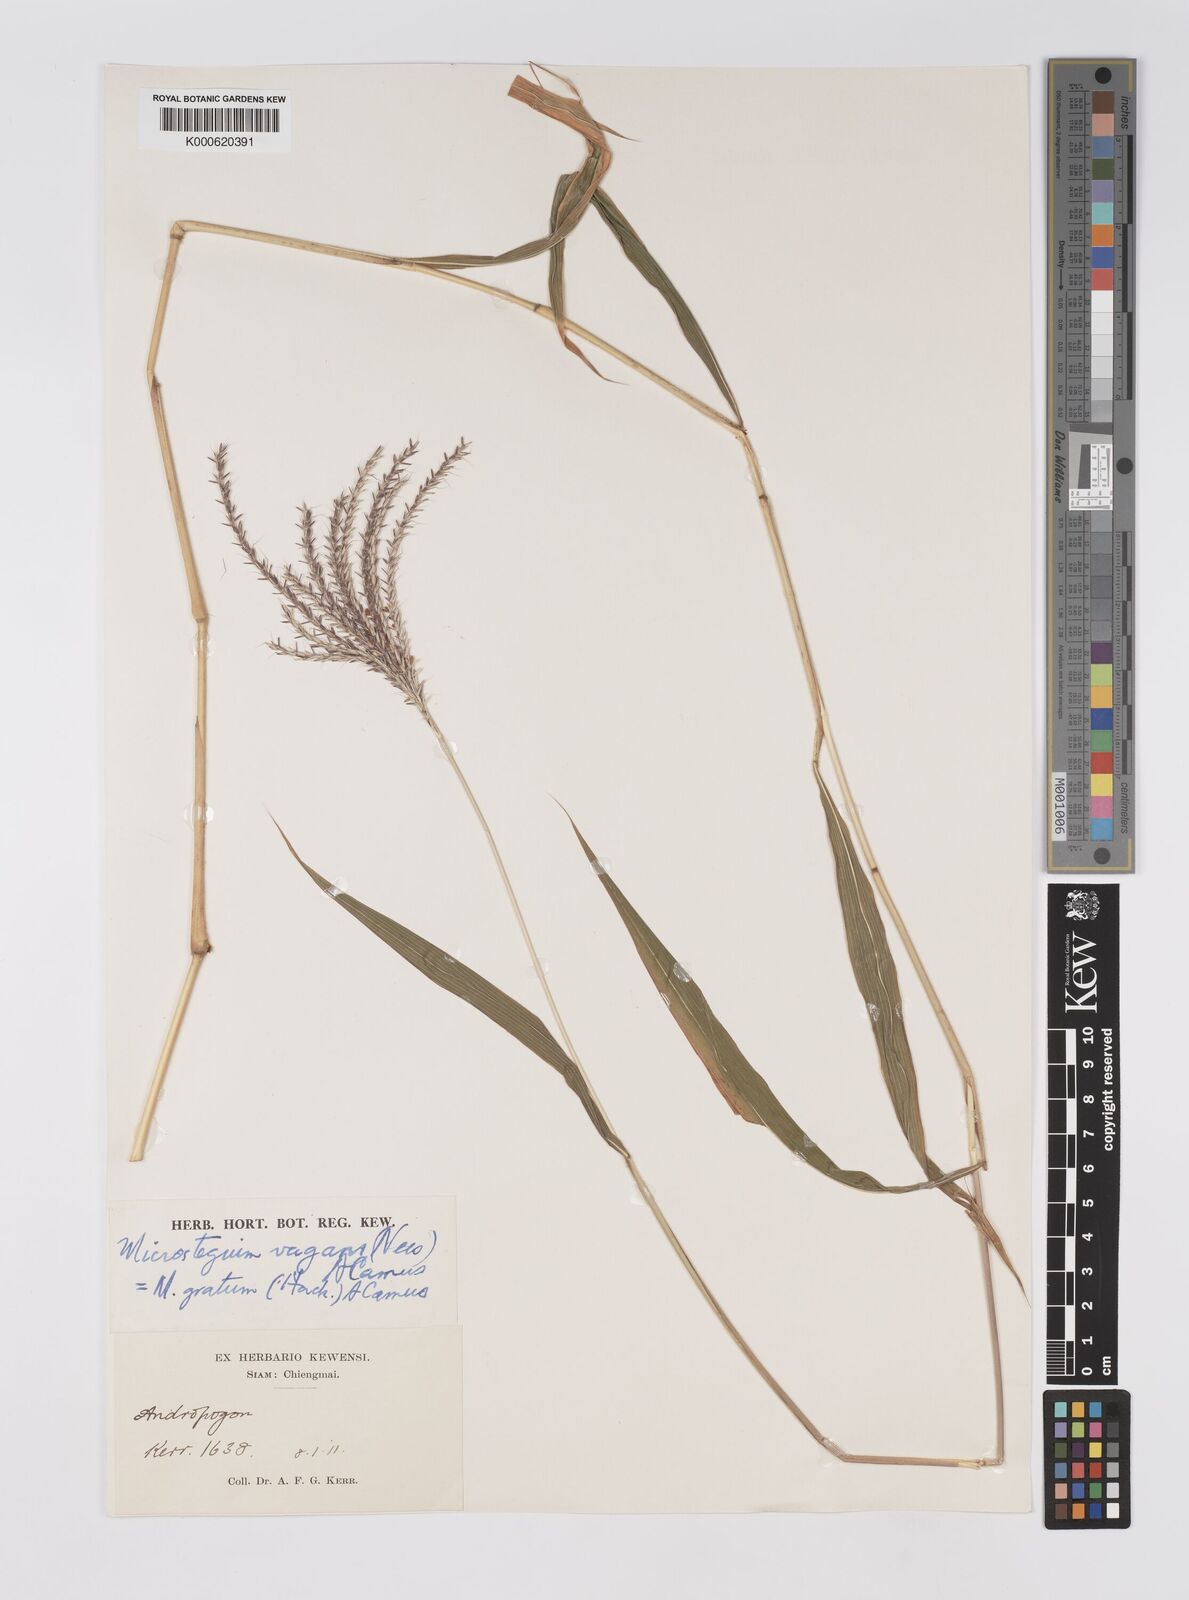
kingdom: Plantae
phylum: Tracheophyta
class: Liliopsida
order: Poales
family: Poaceae
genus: Microstegium
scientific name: Microstegium fasciculatum
